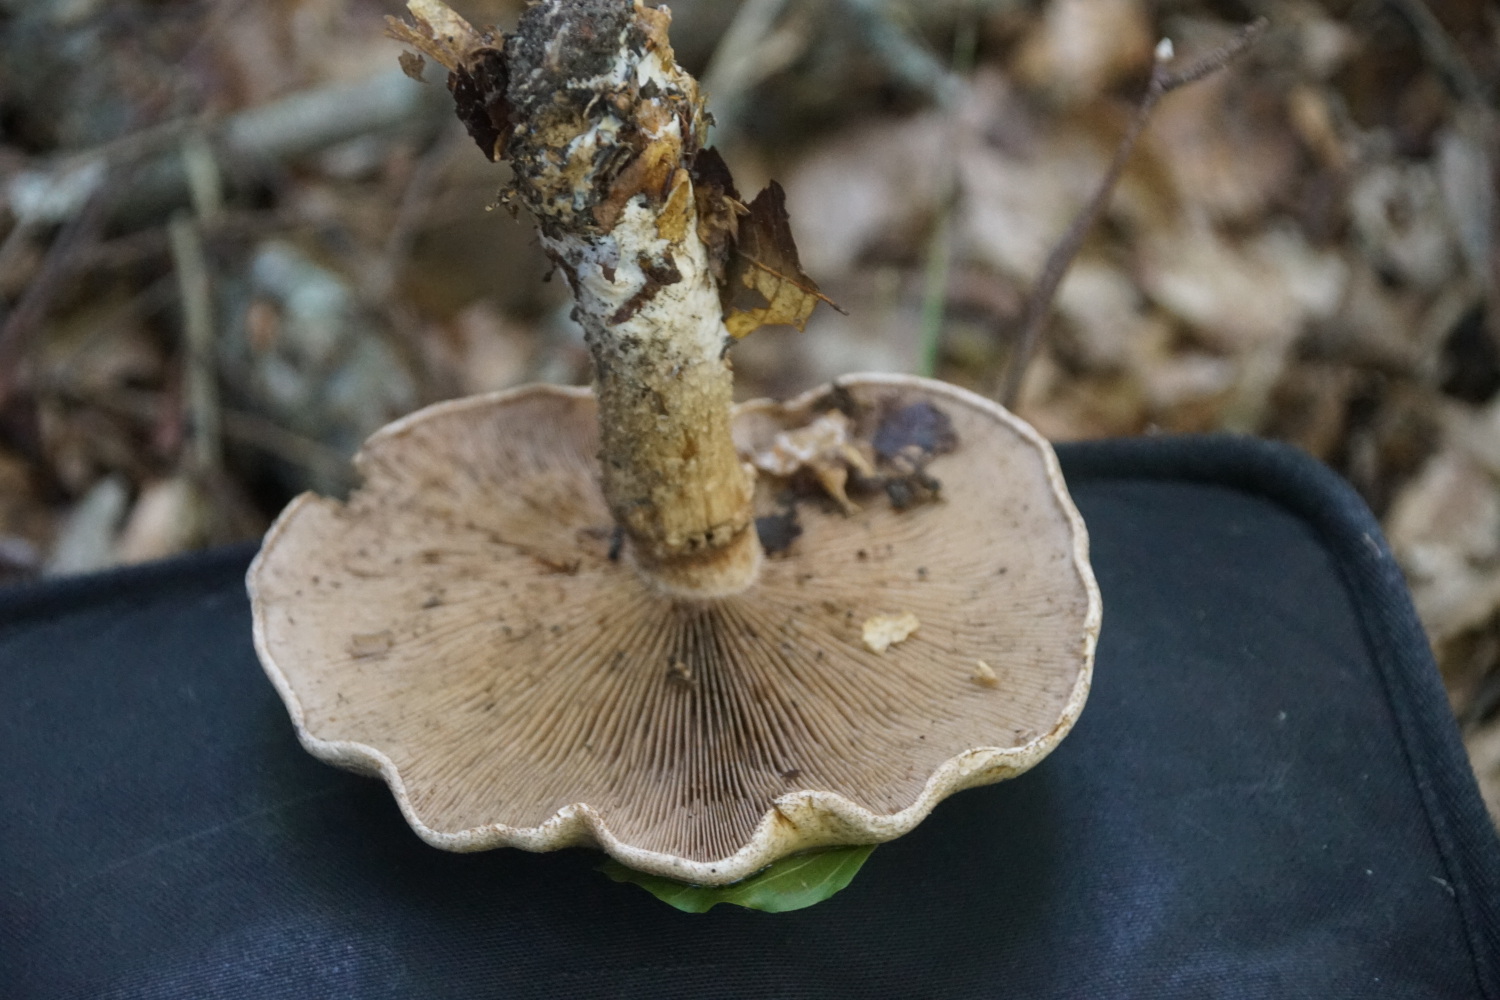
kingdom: Fungi
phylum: Basidiomycota
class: Agaricomycetes
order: Agaricales
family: Hymenogastraceae
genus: Hebeloma
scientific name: Hebeloma radicosum
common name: pælerods-tåreblad
